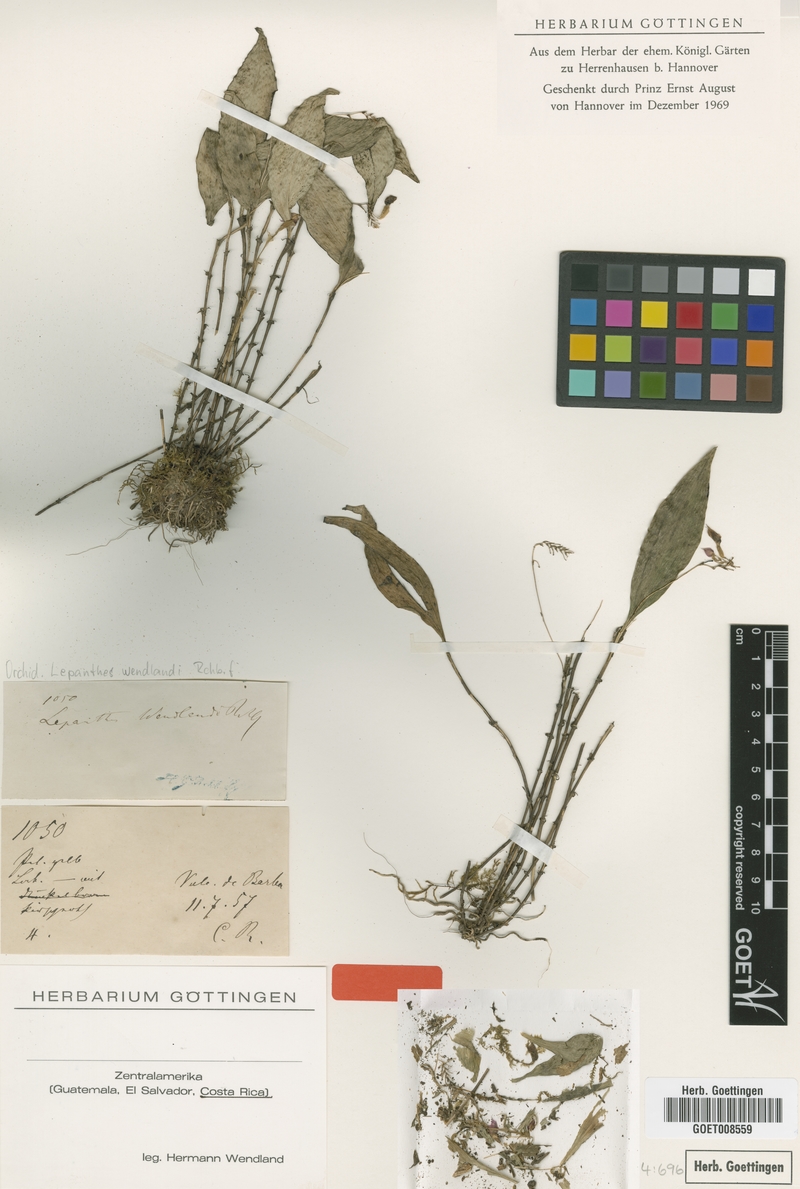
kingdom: Plantae
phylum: Tracheophyta
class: Liliopsida
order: Asparagales
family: Orchidaceae
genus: Lepanthes
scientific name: Lepanthes wendlandii
